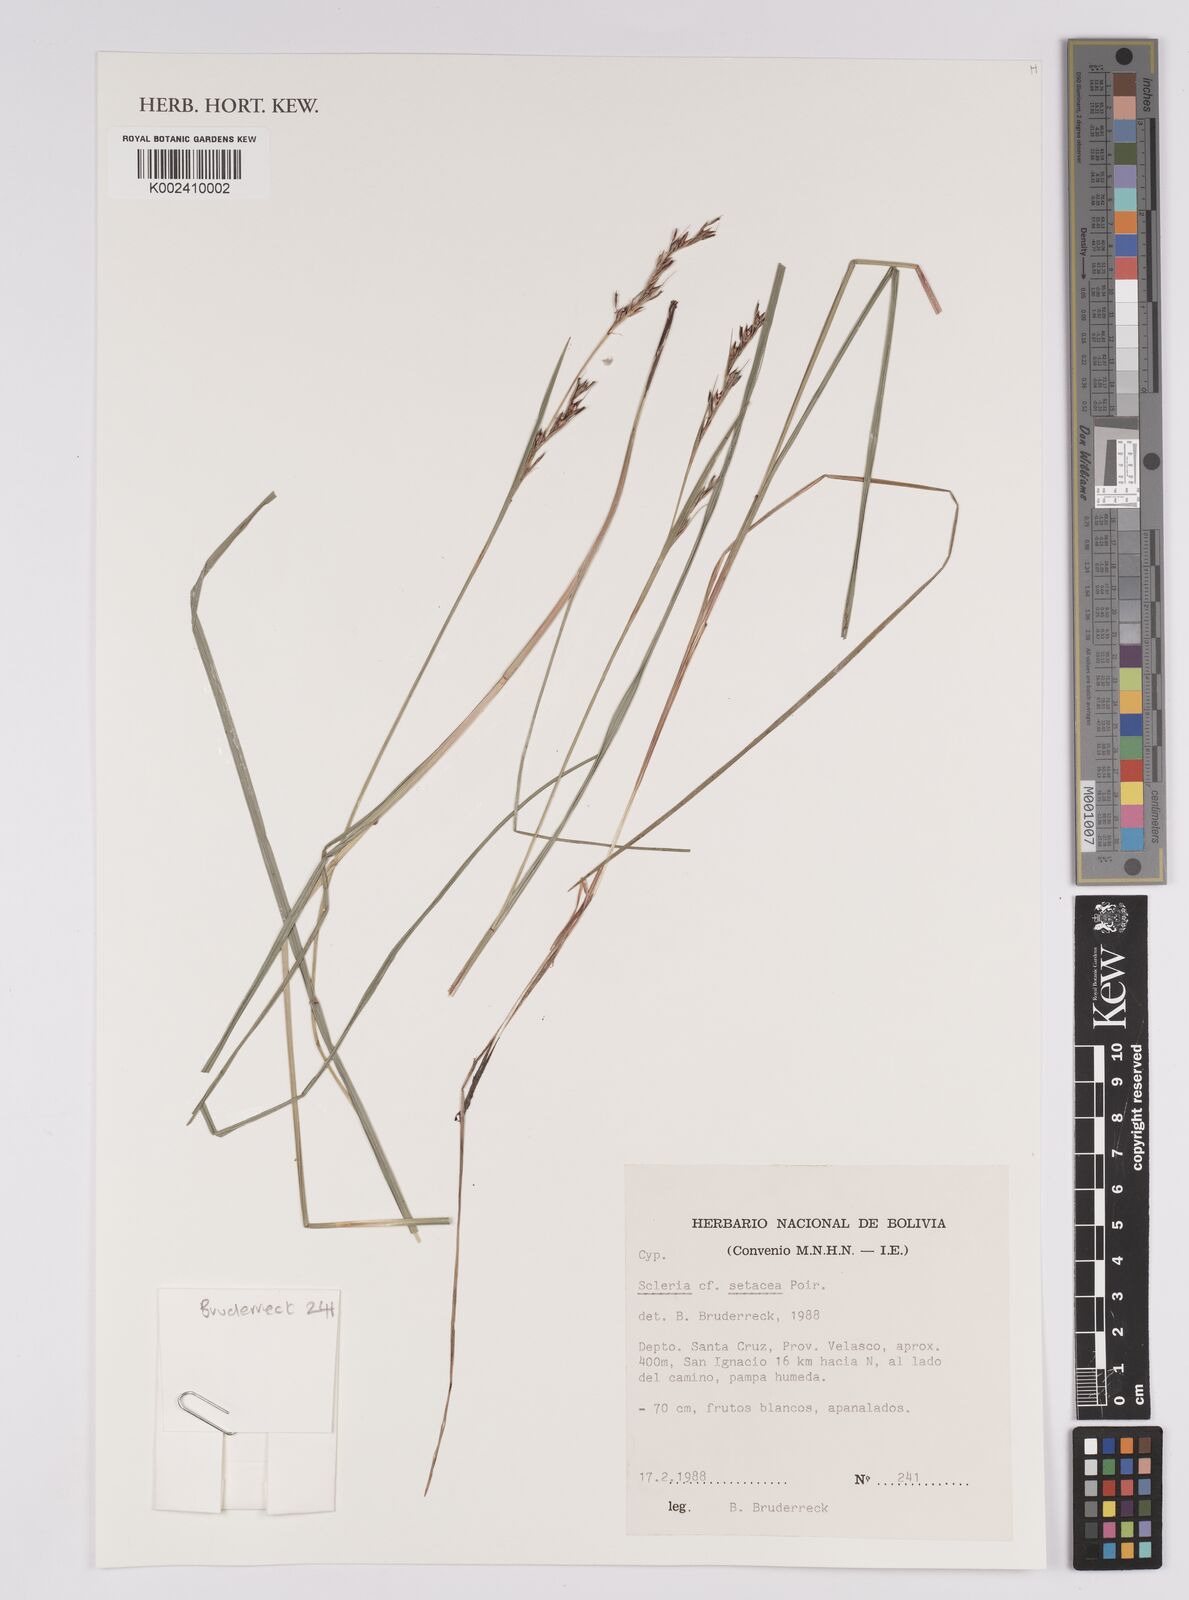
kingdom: Plantae
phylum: Tracheophyta
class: Liliopsida
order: Poales
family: Cyperaceae
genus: Rhynchospora
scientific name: Rhynchospora tenerrima
